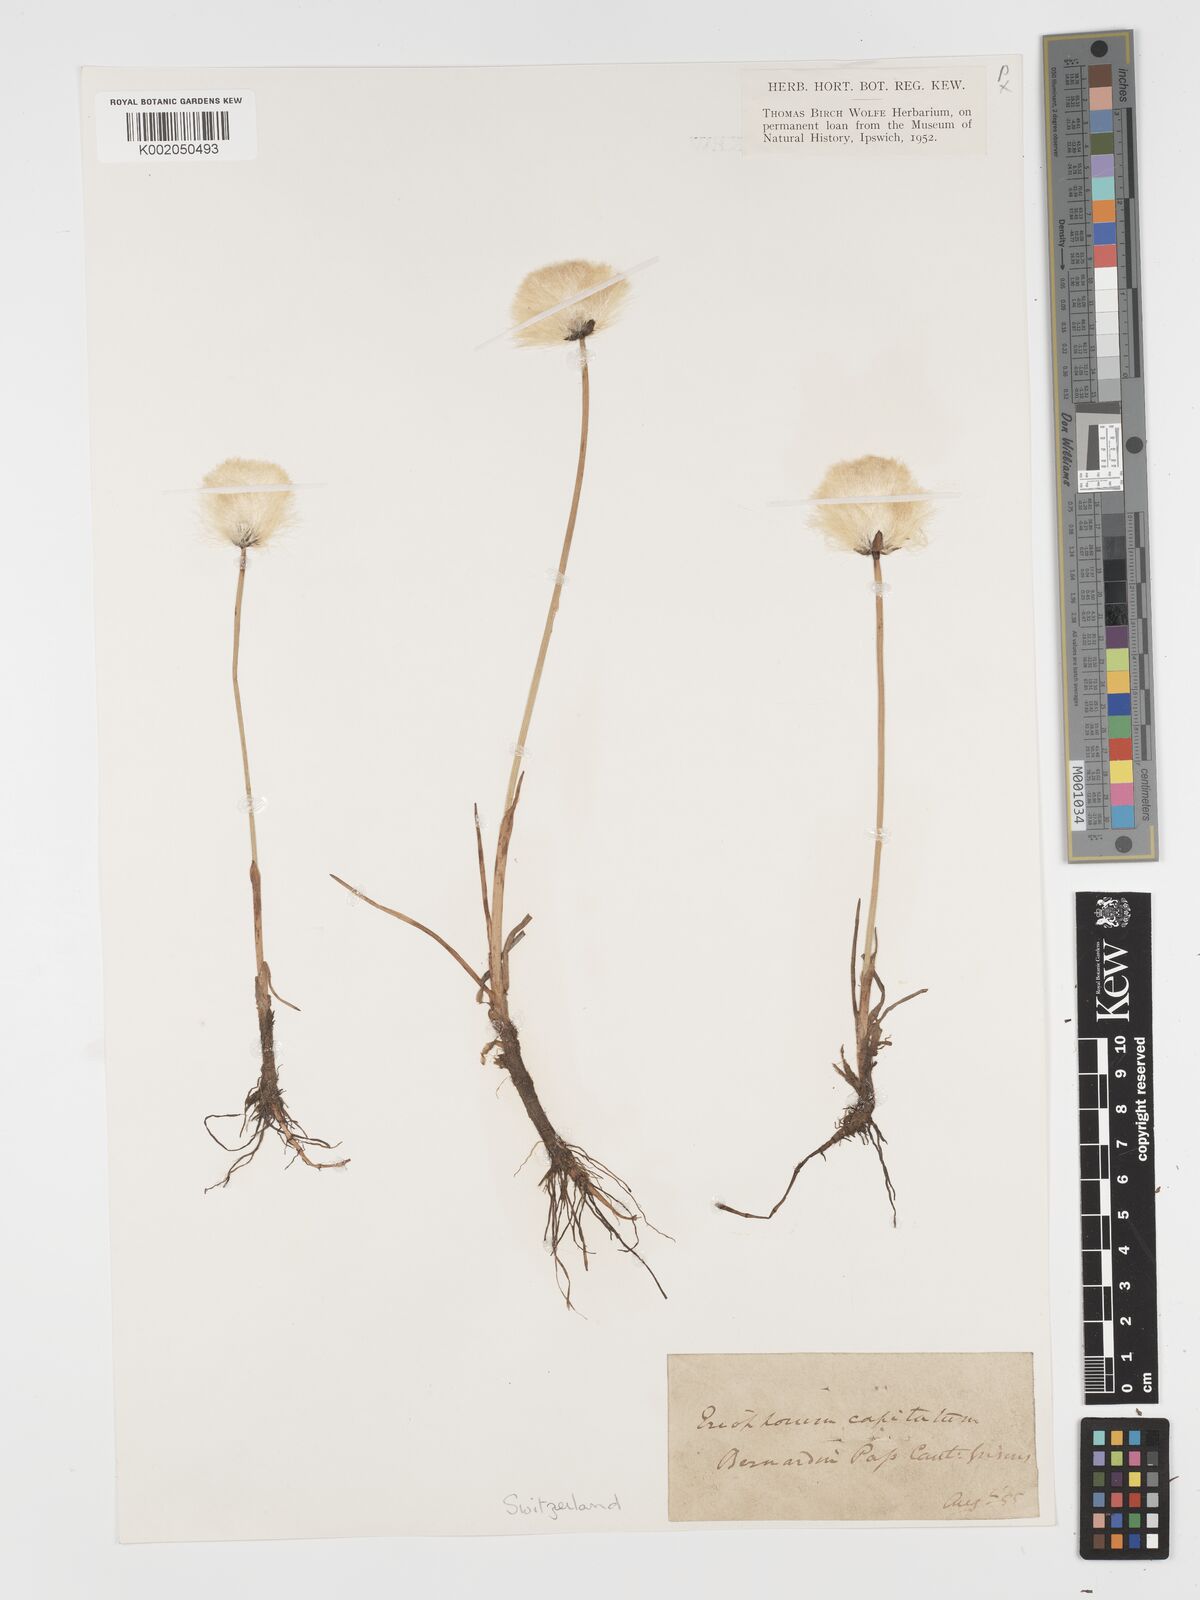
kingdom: Plantae
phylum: Tracheophyta
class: Liliopsida
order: Poales
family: Cyperaceae
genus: Eriophorum
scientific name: Eriophorum scheuchzeri
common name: Scheuchzer's cottongrass
